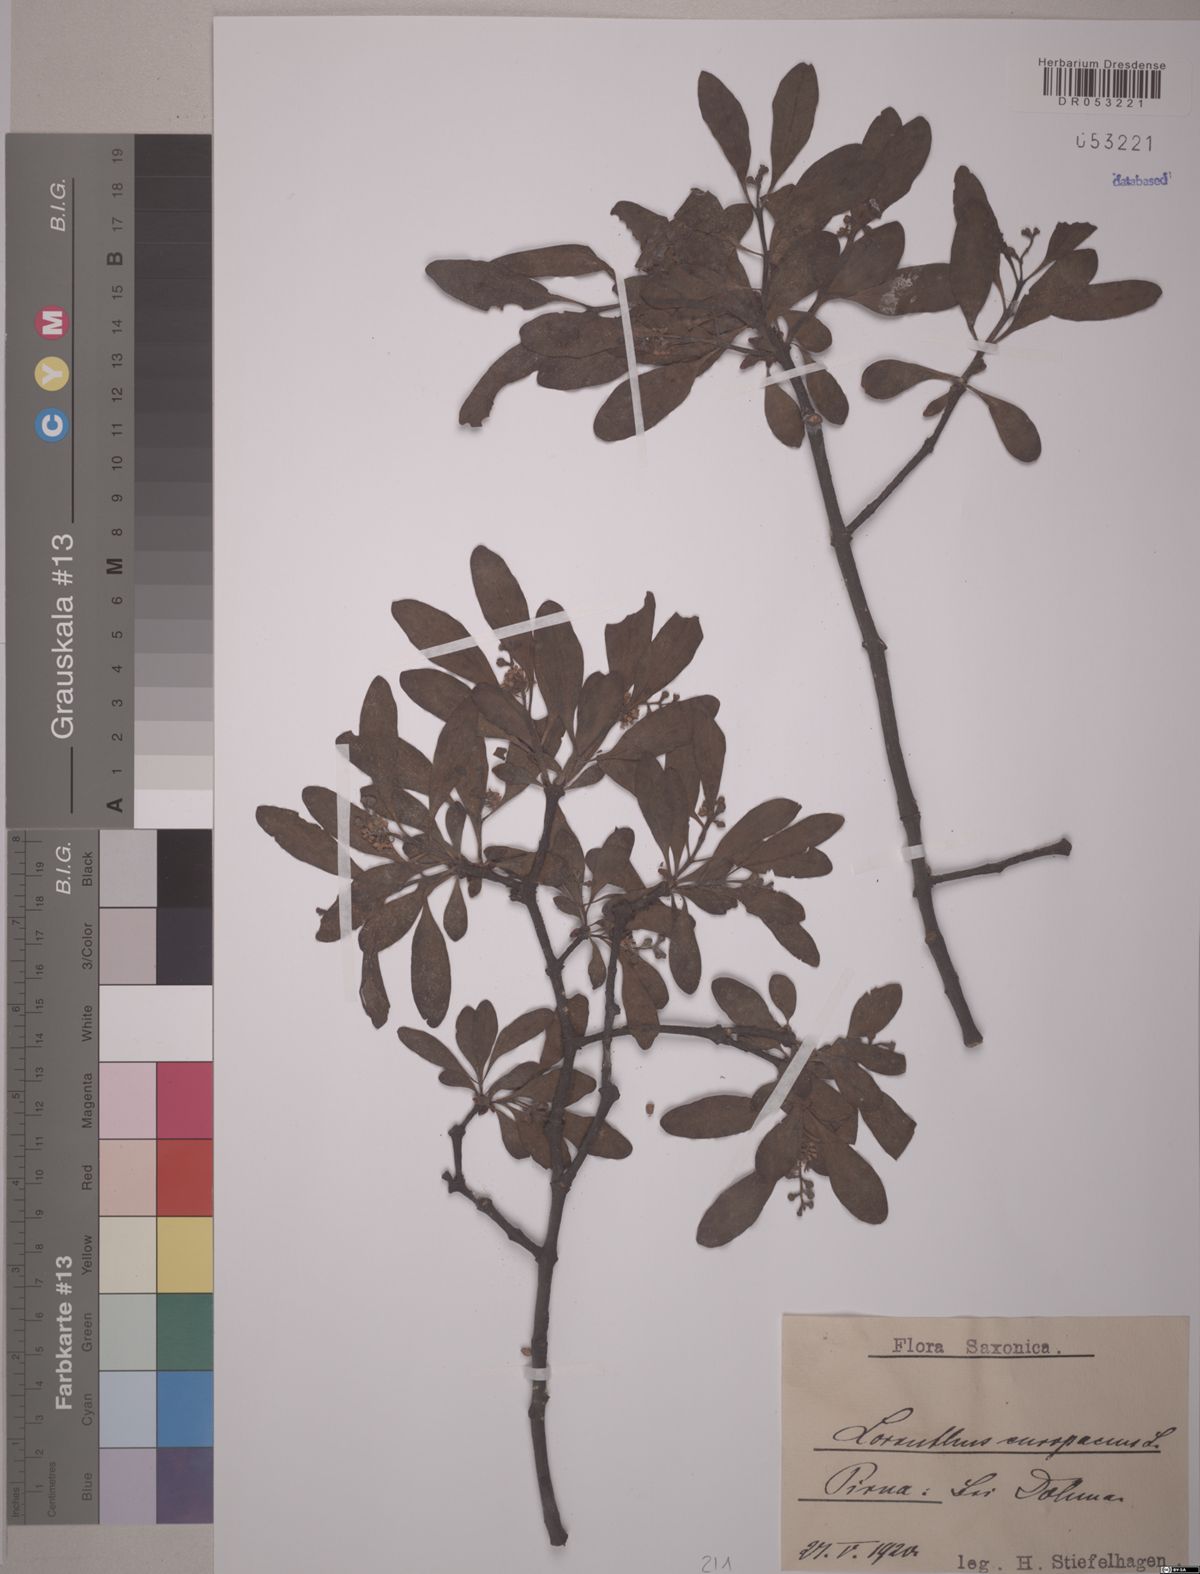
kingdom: Plantae
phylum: Tracheophyta
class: Magnoliopsida
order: Santalales
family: Loranthaceae
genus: Loranthus
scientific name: Loranthus europaeus
